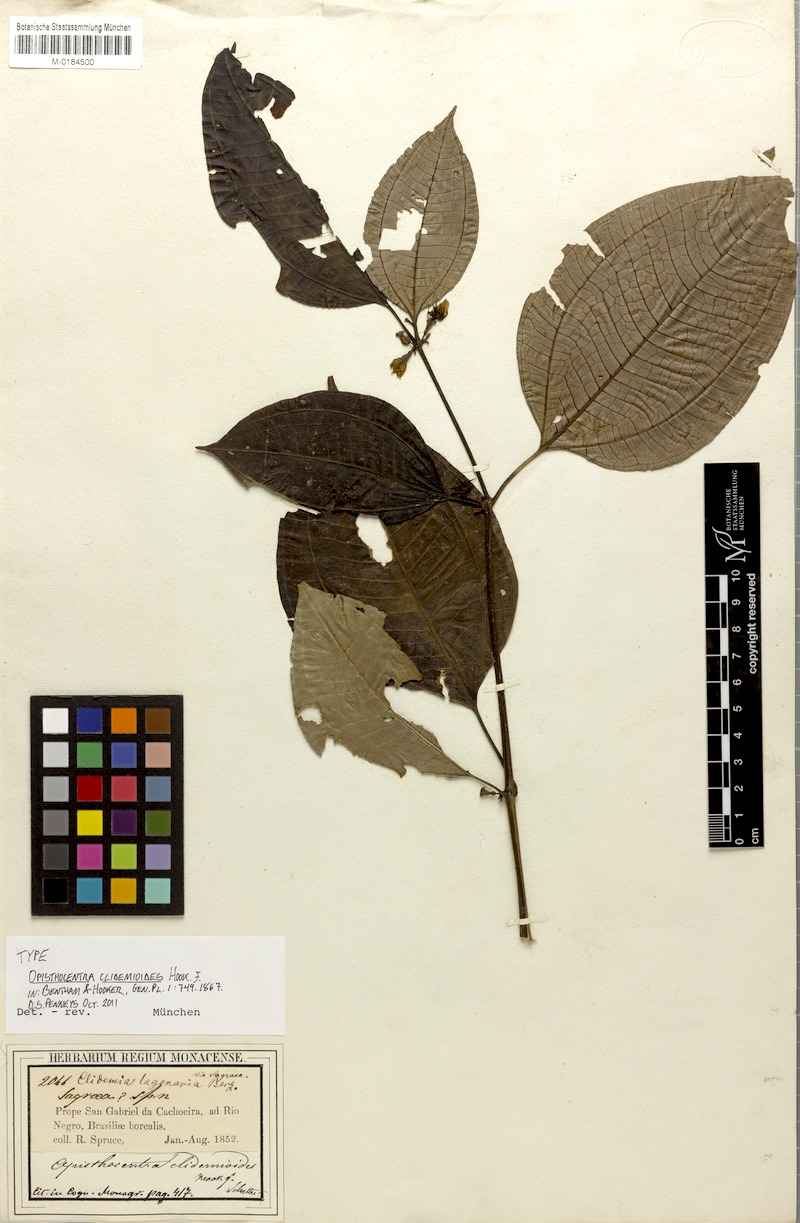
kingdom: Plantae
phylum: Tracheophyta
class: Magnoliopsida
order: Myrtales
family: Melastomataceae
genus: Opisthocentra
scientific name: Opisthocentra clidemioides
